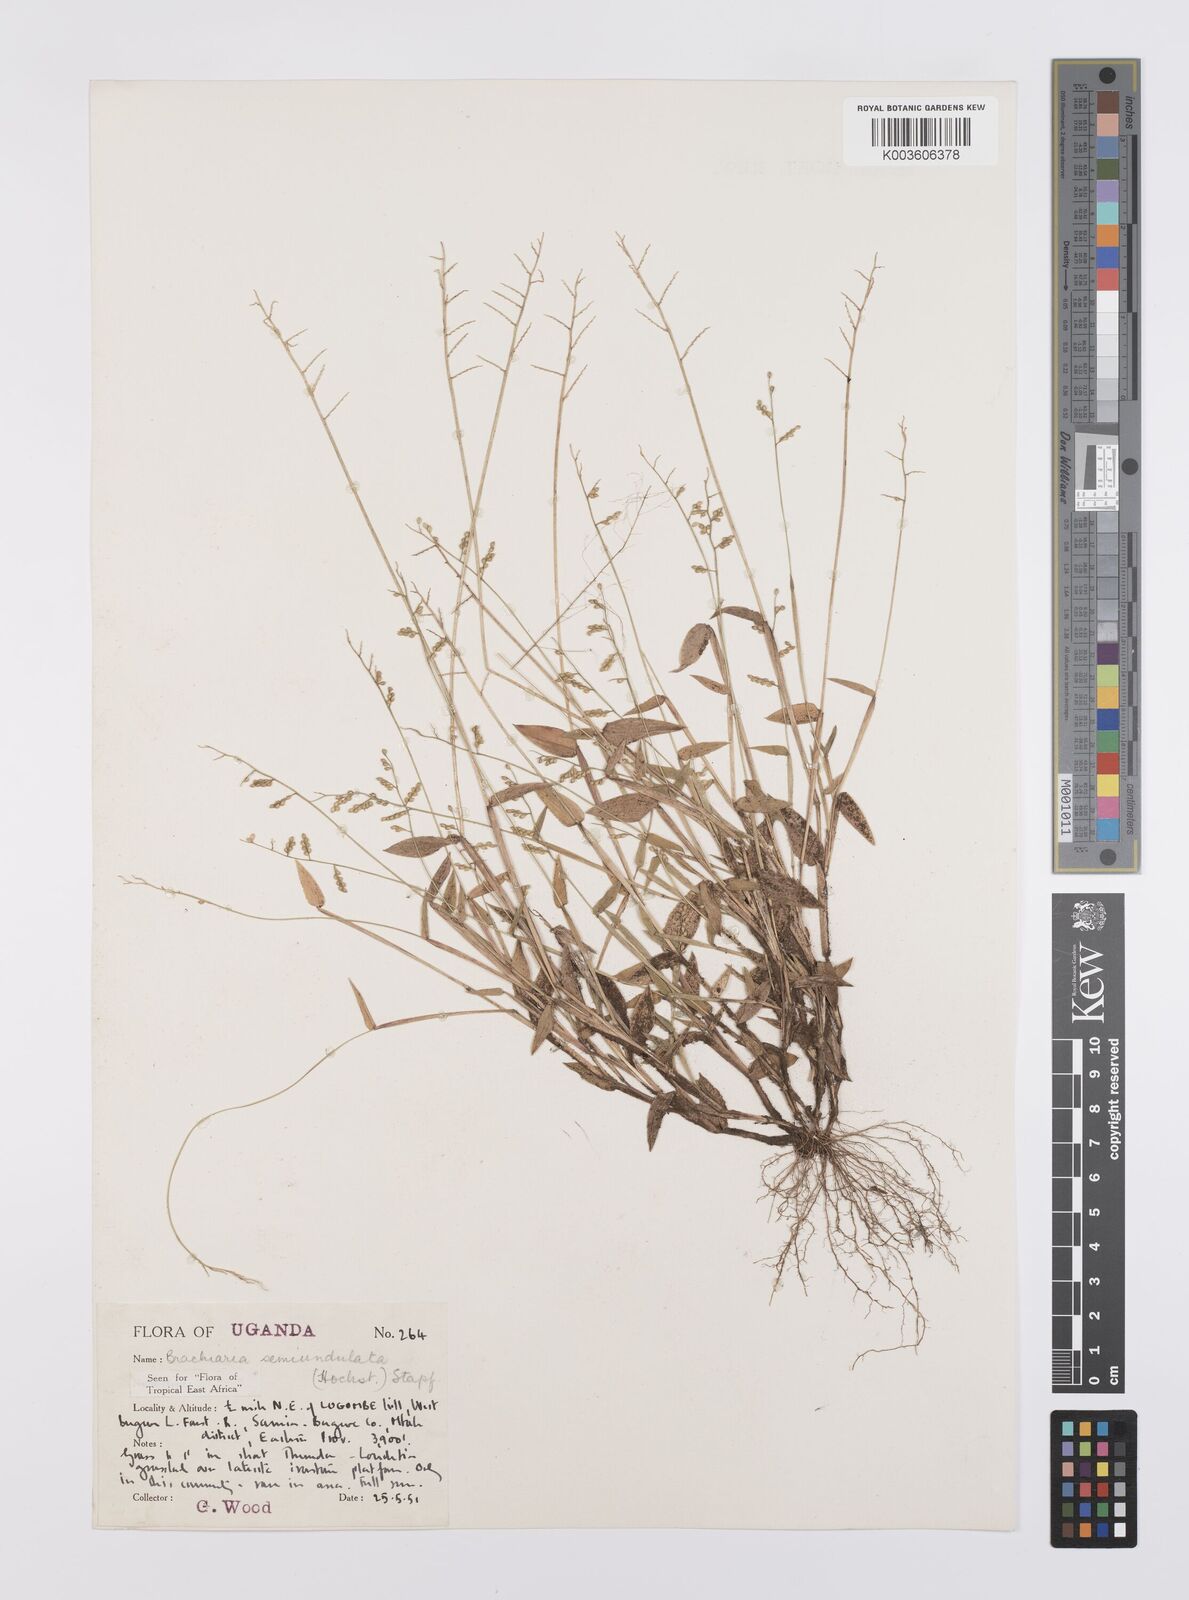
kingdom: Plantae
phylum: Tracheophyta
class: Liliopsida
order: Poales
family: Poaceae
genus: Urochloa
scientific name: Urochloa semiundulata
